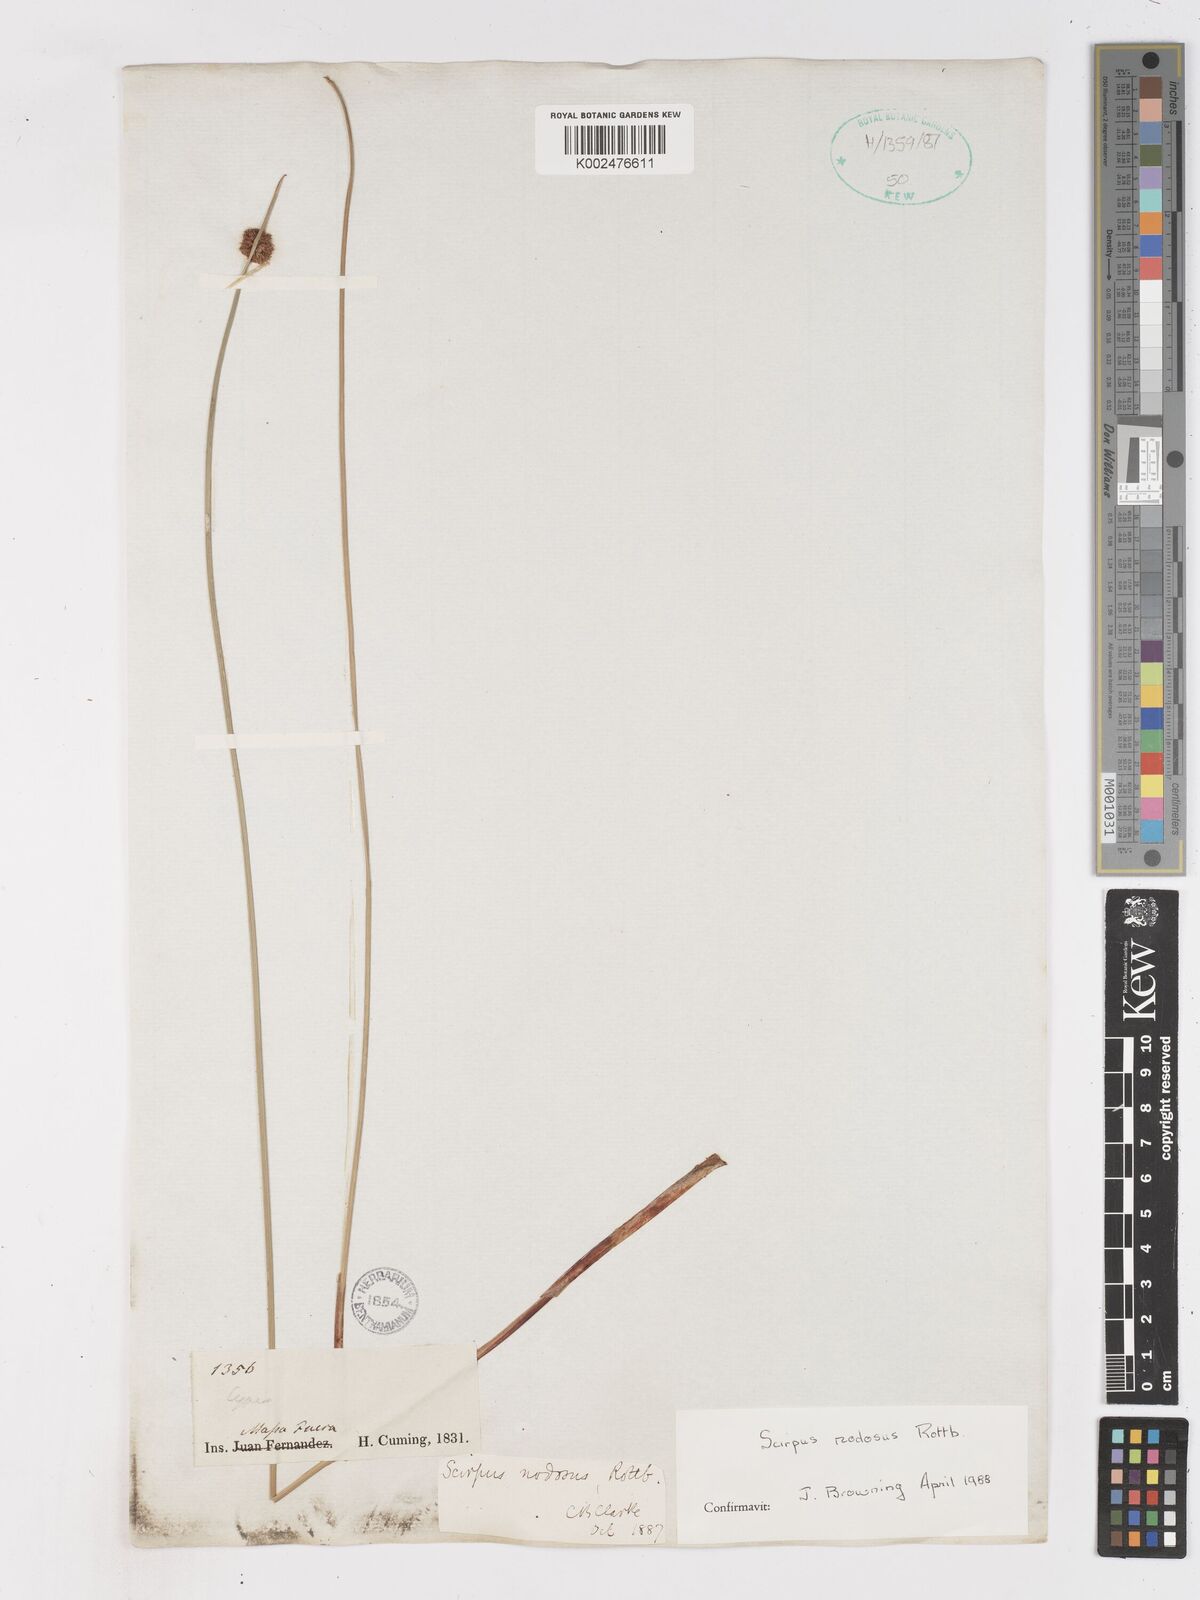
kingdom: Plantae
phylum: Tracheophyta
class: Liliopsida
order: Poales
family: Cyperaceae
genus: Ficinia
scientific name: Ficinia nodosa
